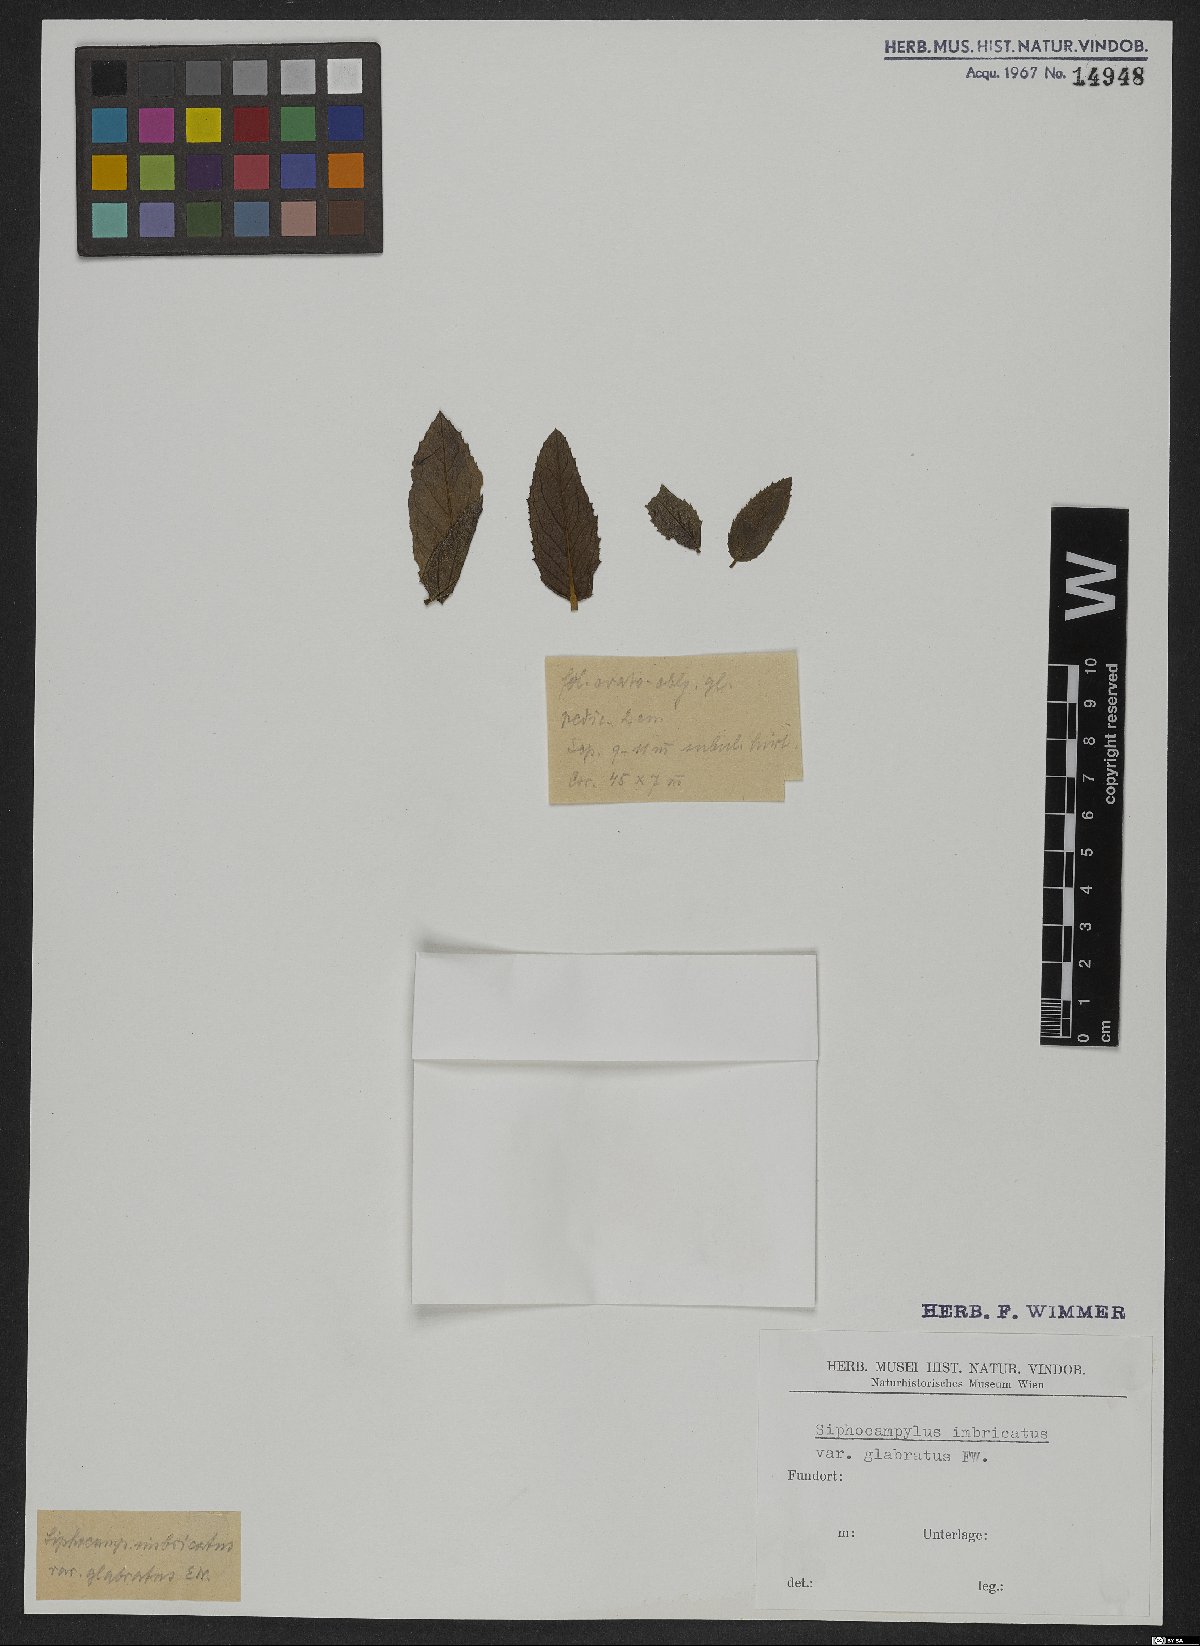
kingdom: Plantae
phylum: Tracheophyta
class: Magnoliopsida
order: Asterales
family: Campanulaceae
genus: Siphocampylus
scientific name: Siphocampylus imbricatus
